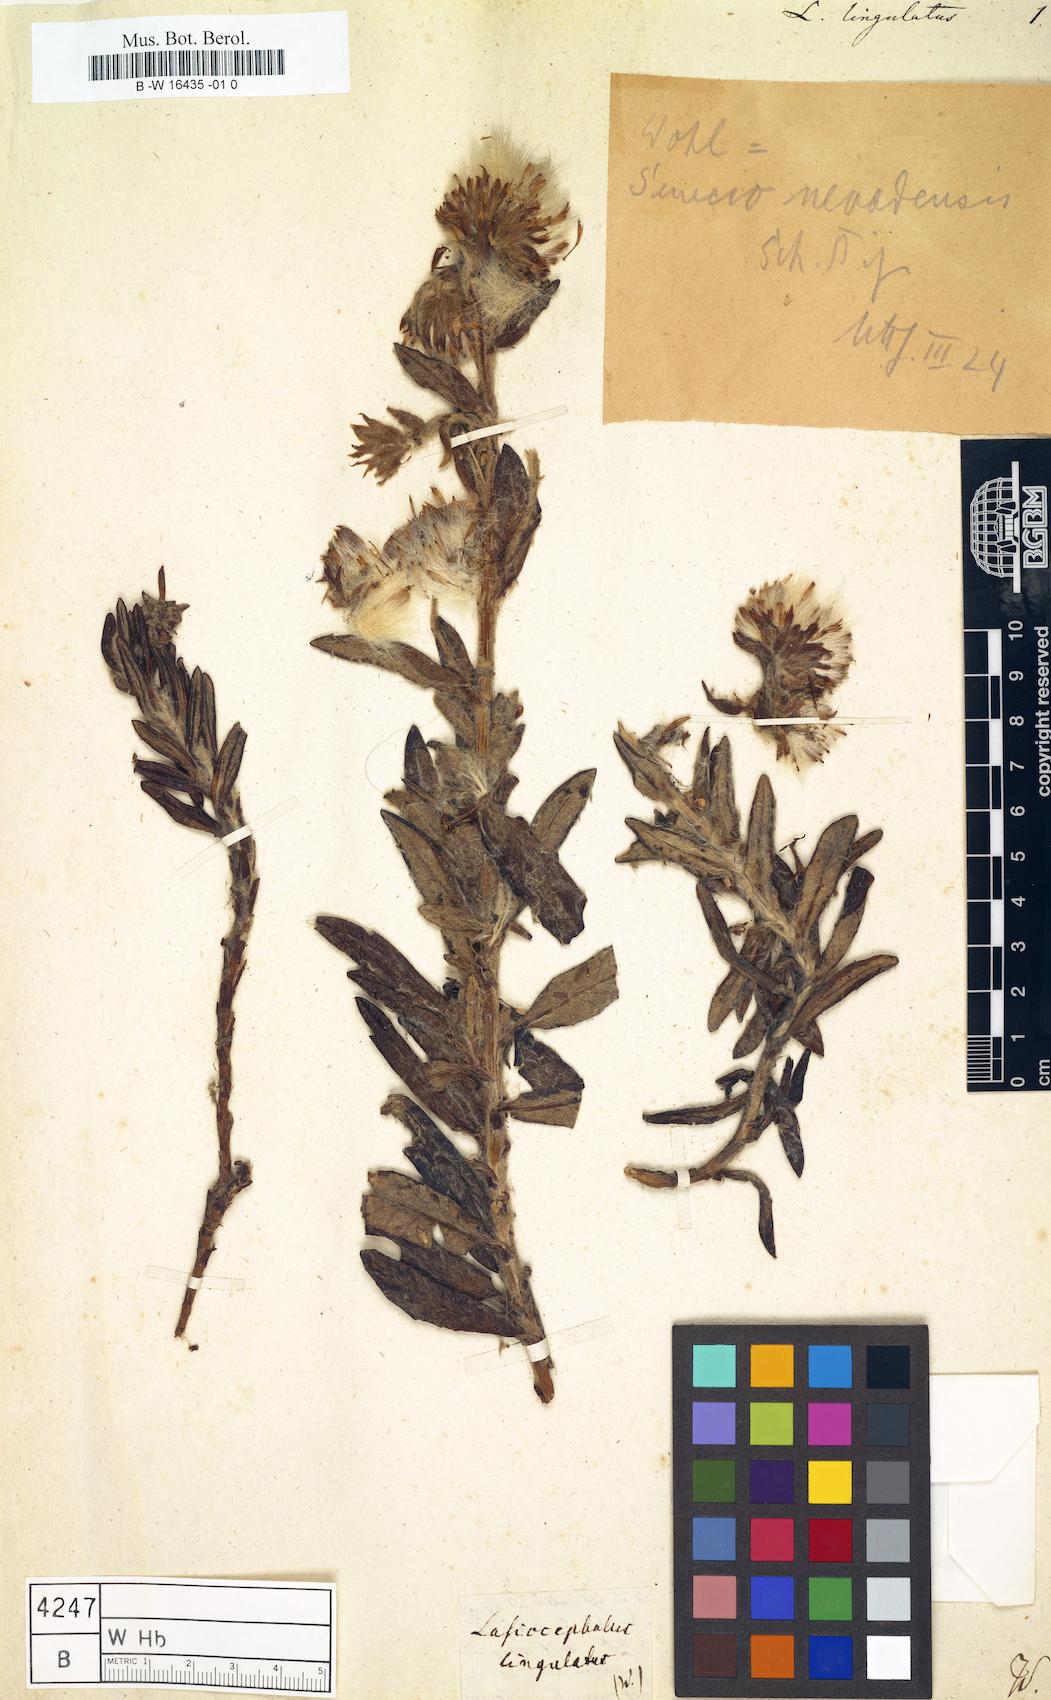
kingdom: Plantae
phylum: Tracheophyta
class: Magnoliopsida
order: Asterales
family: Asteraceae
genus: Lasiocephalus
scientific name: Lasiocephalus lingulatus
